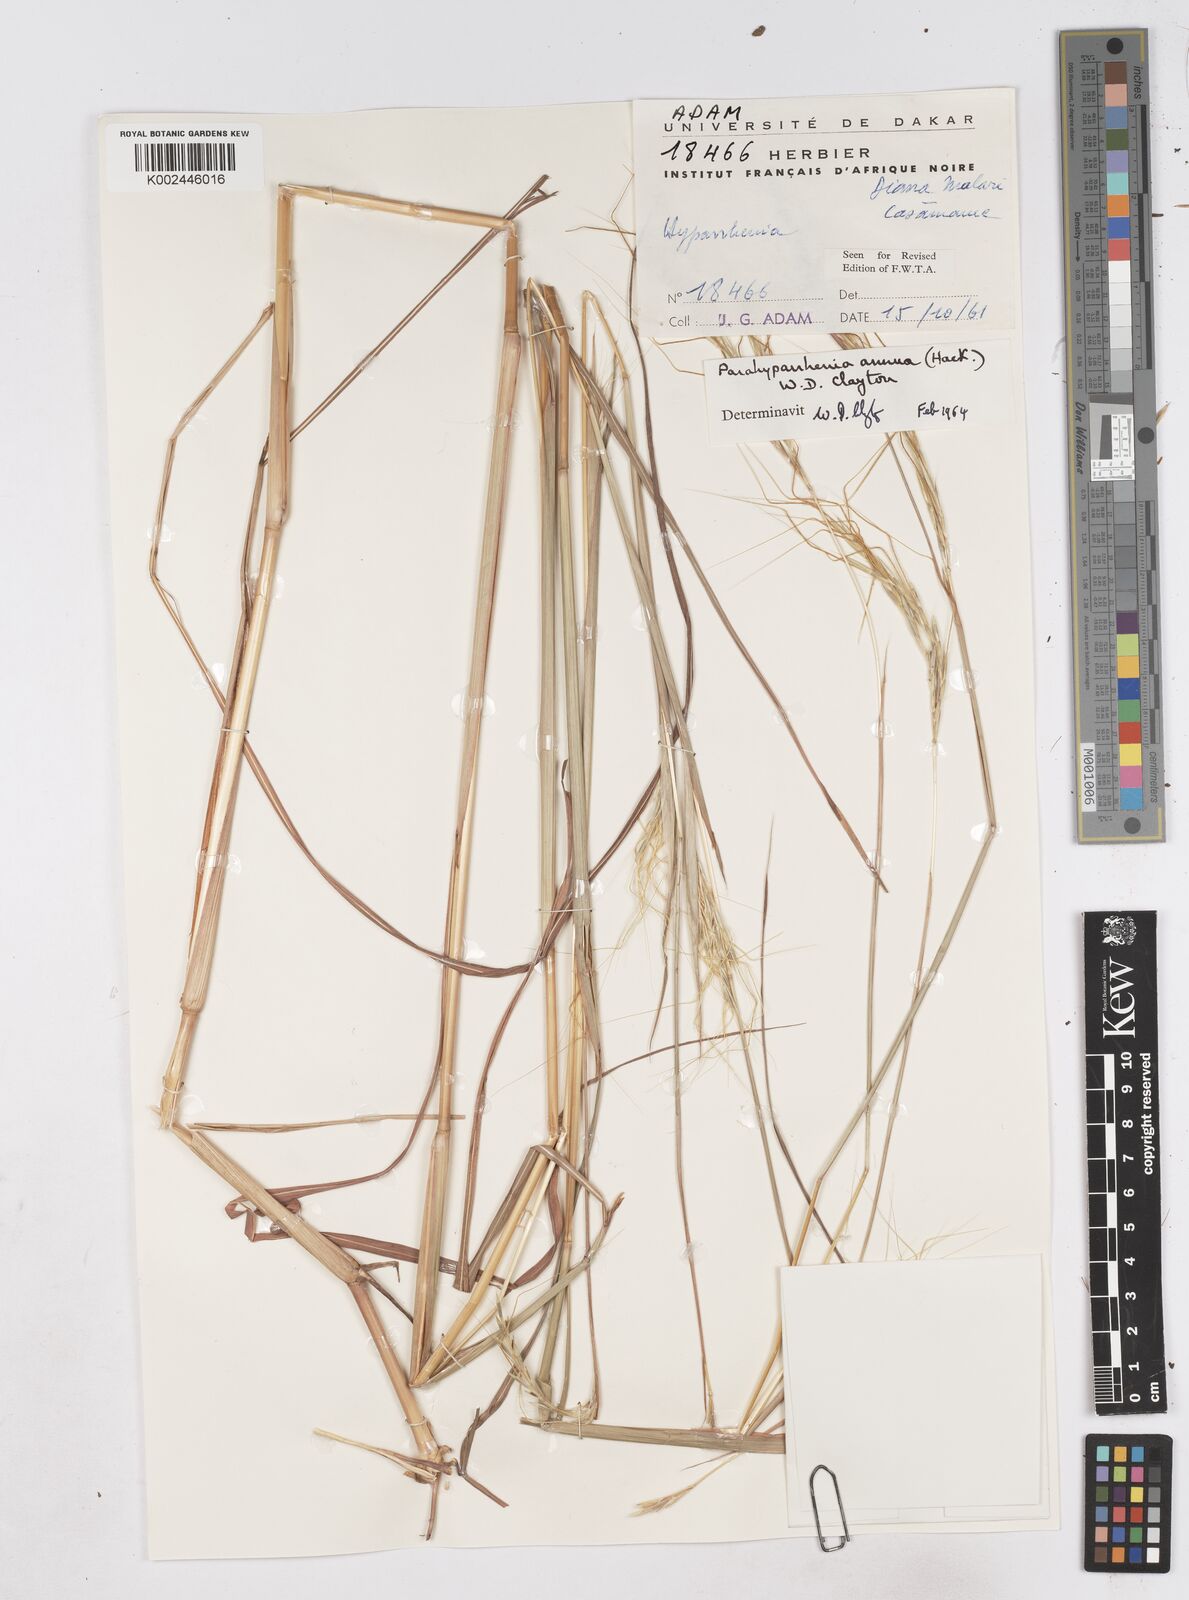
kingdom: Plantae
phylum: Tracheophyta
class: Liliopsida
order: Poales
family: Poaceae
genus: Parahyparrhenia
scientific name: Parahyparrhenia annua
